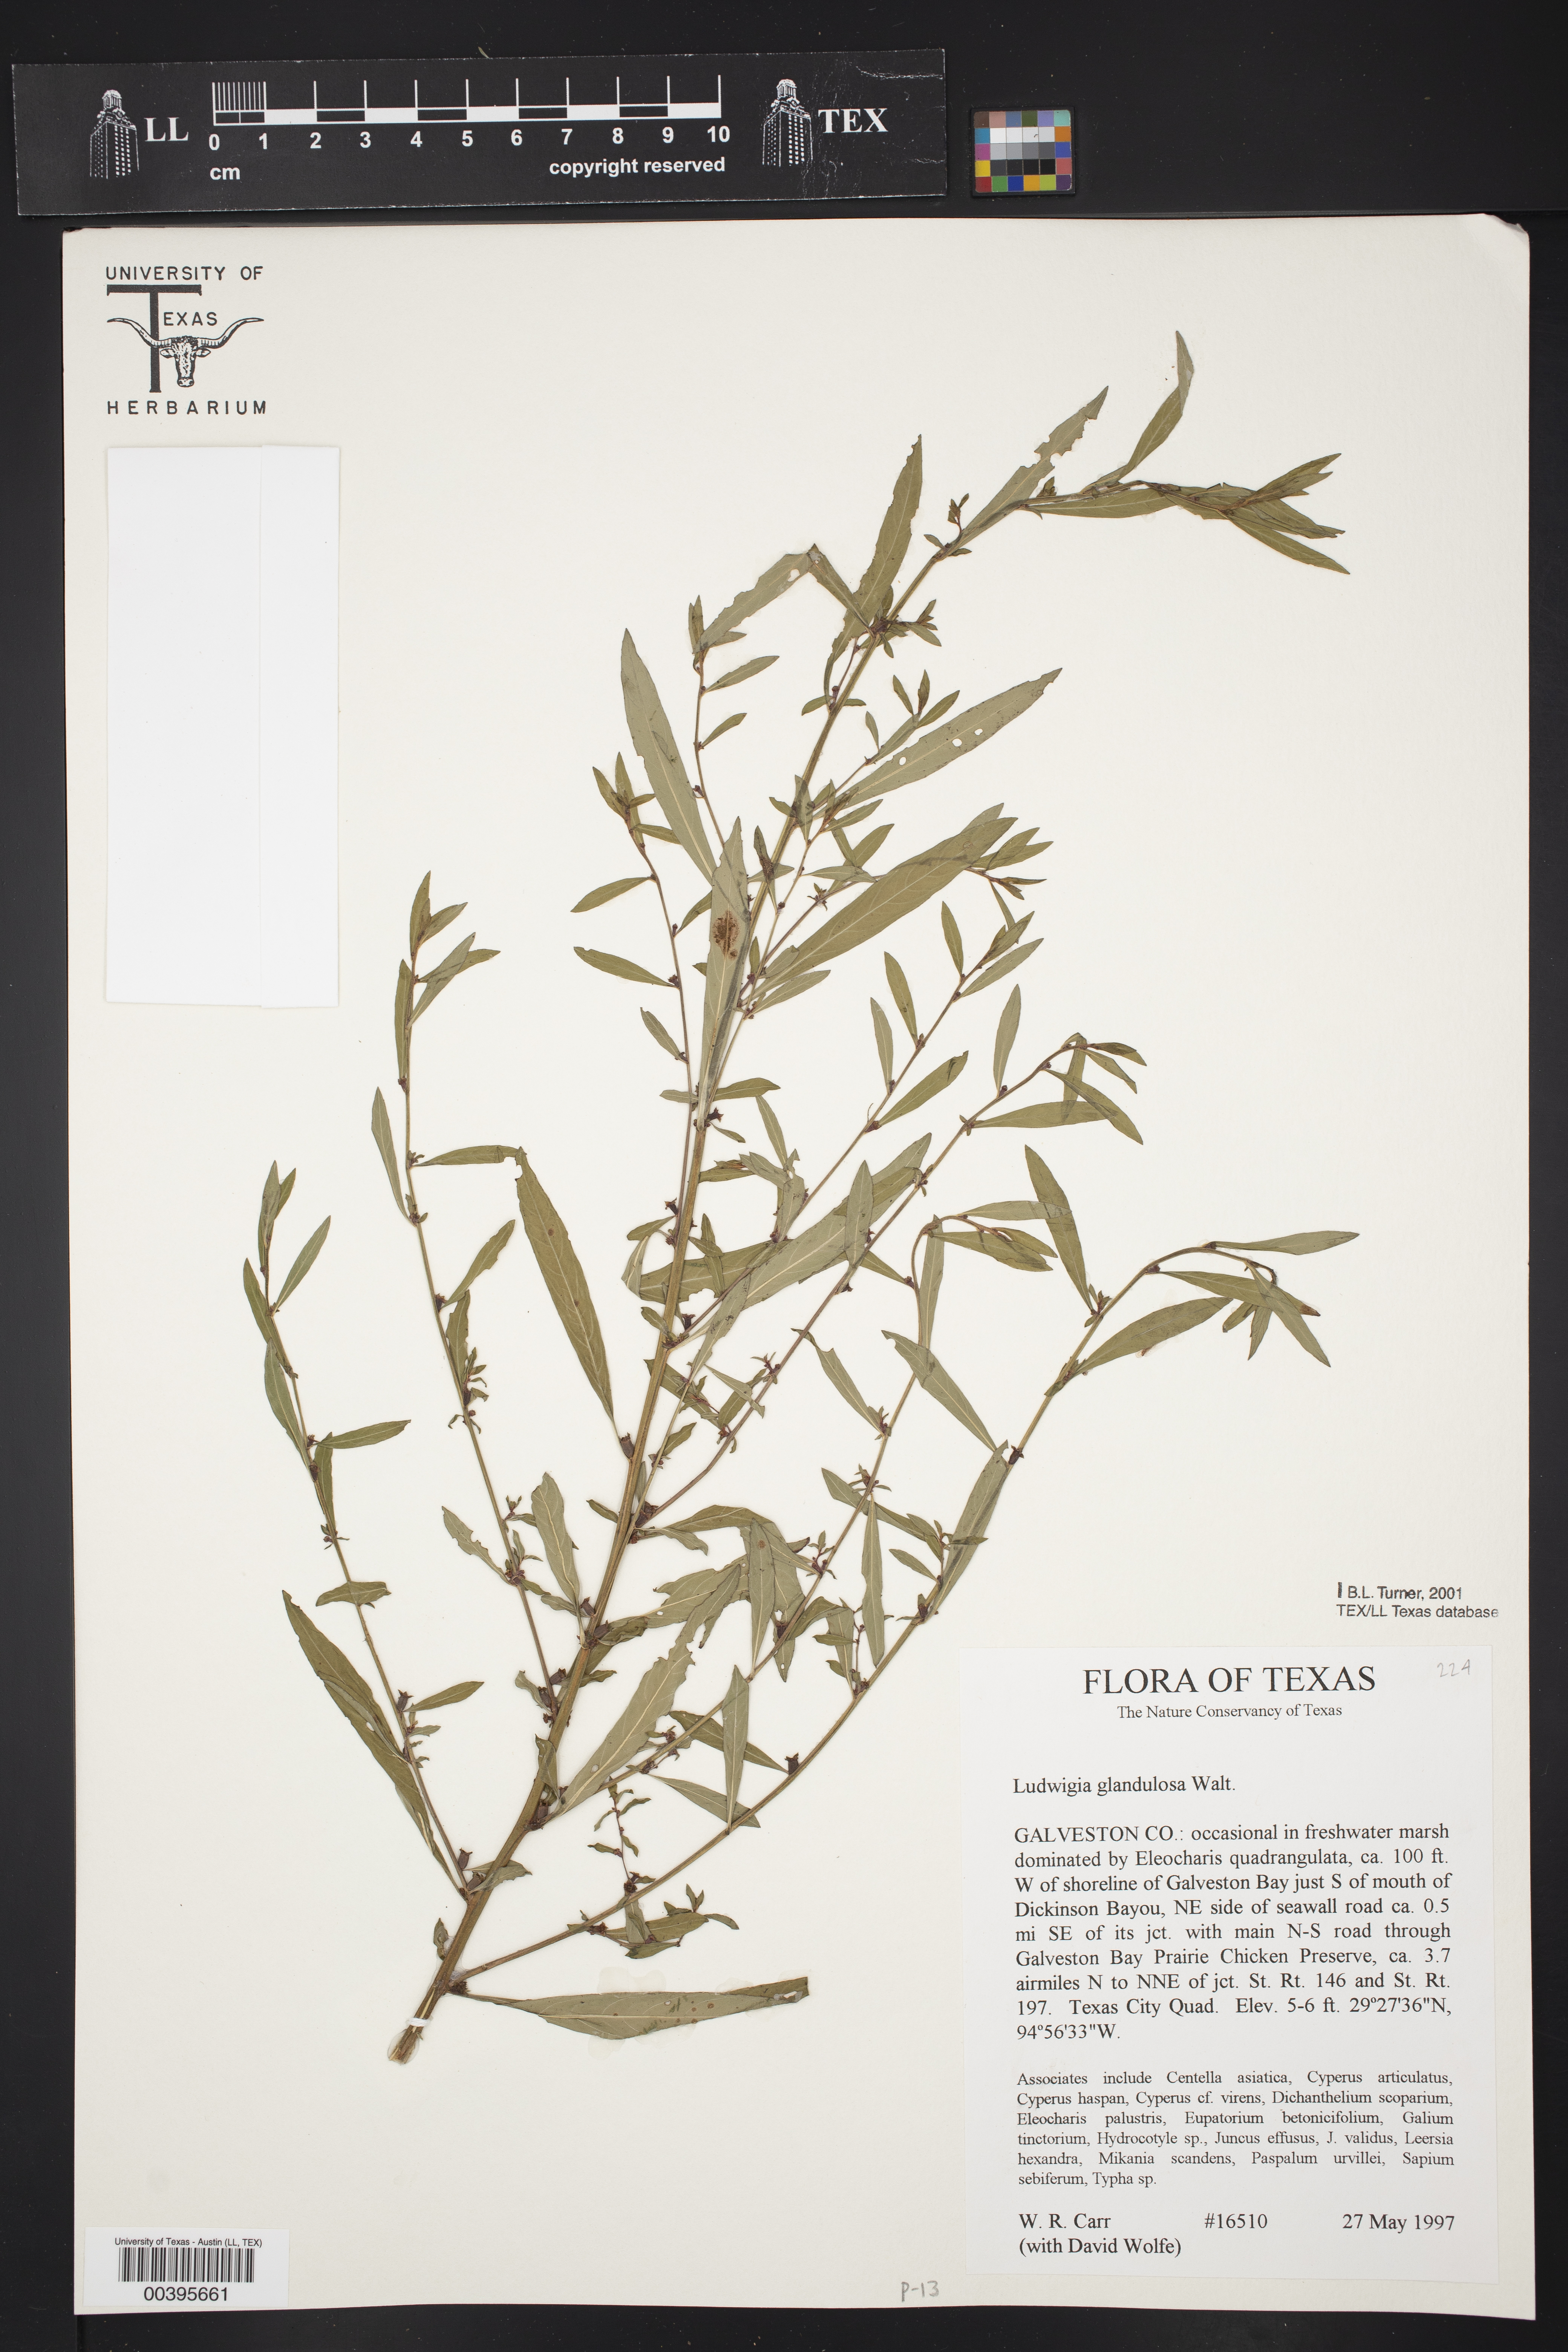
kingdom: Plantae
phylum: Tracheophyta
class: Magnoliopsida
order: Myrtales
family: Onagraceae
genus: Ludwigia
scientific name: Ludwigia glandulosa
